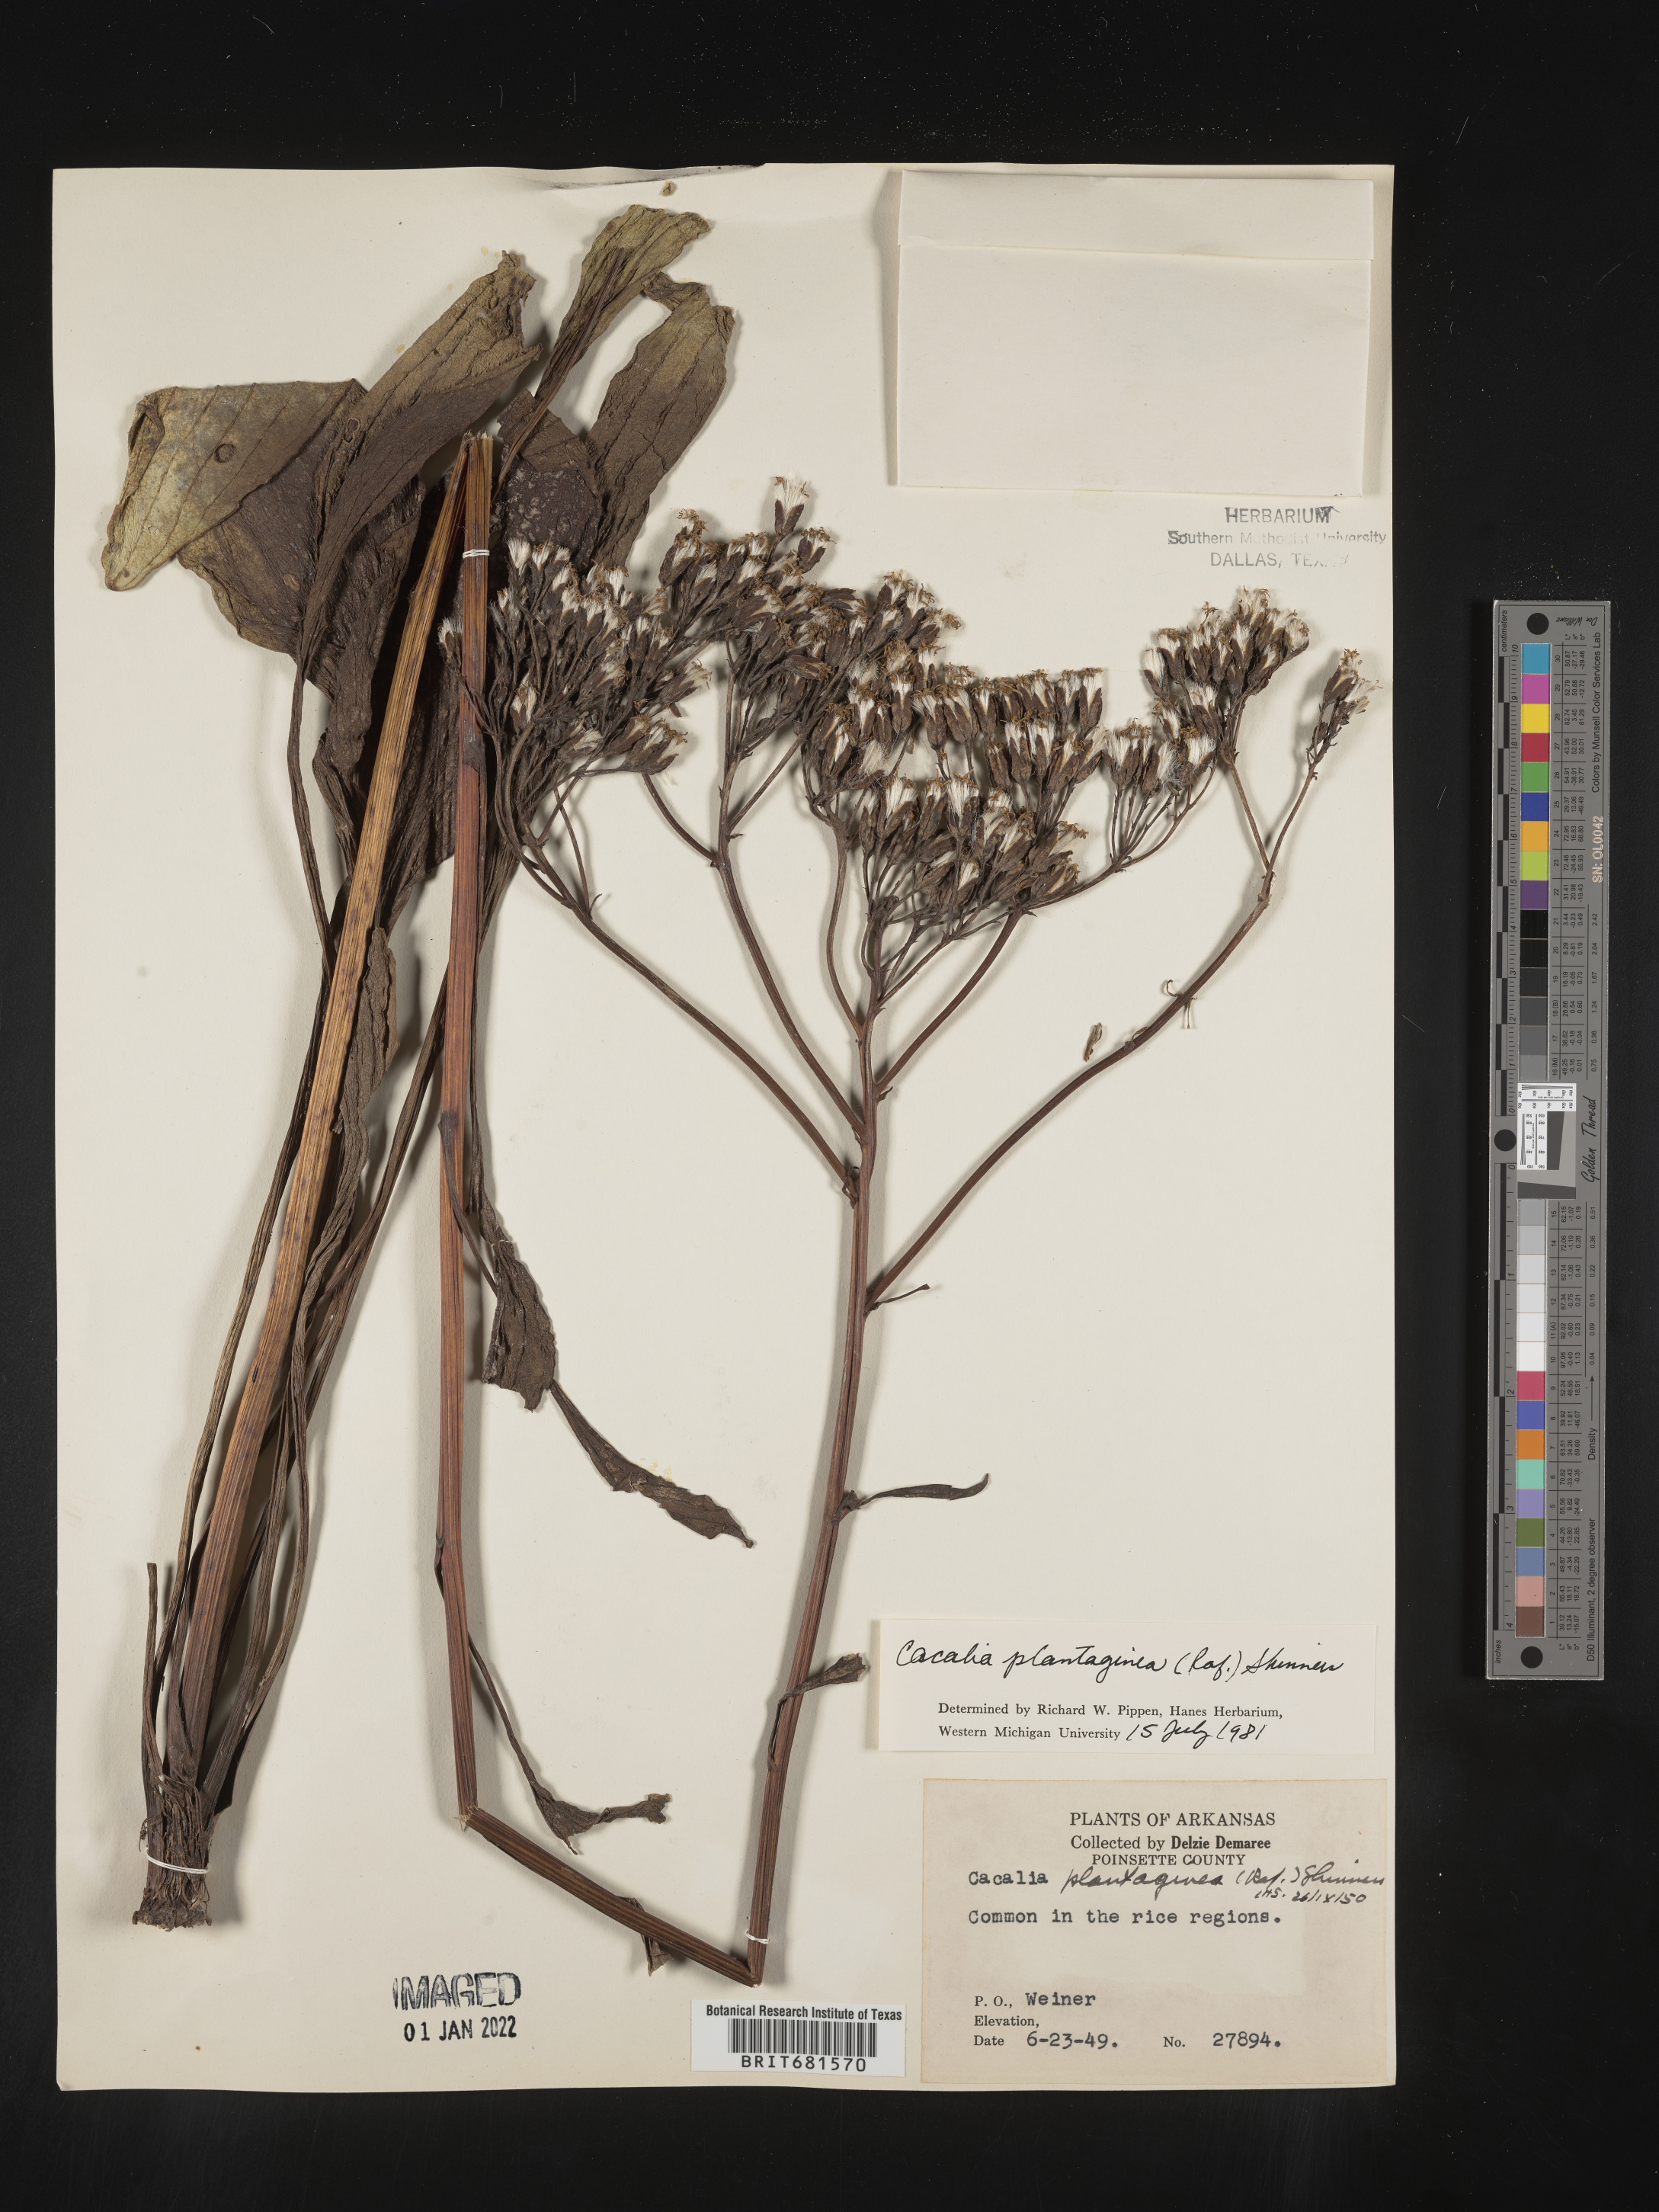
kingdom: Plantae
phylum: Tracheophyta
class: Magnoliopsida
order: Asterales
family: Asteraceae
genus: Arnoglossum
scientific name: Arnoglossum plantagineum
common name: Groove-stemmed indian-plantain
